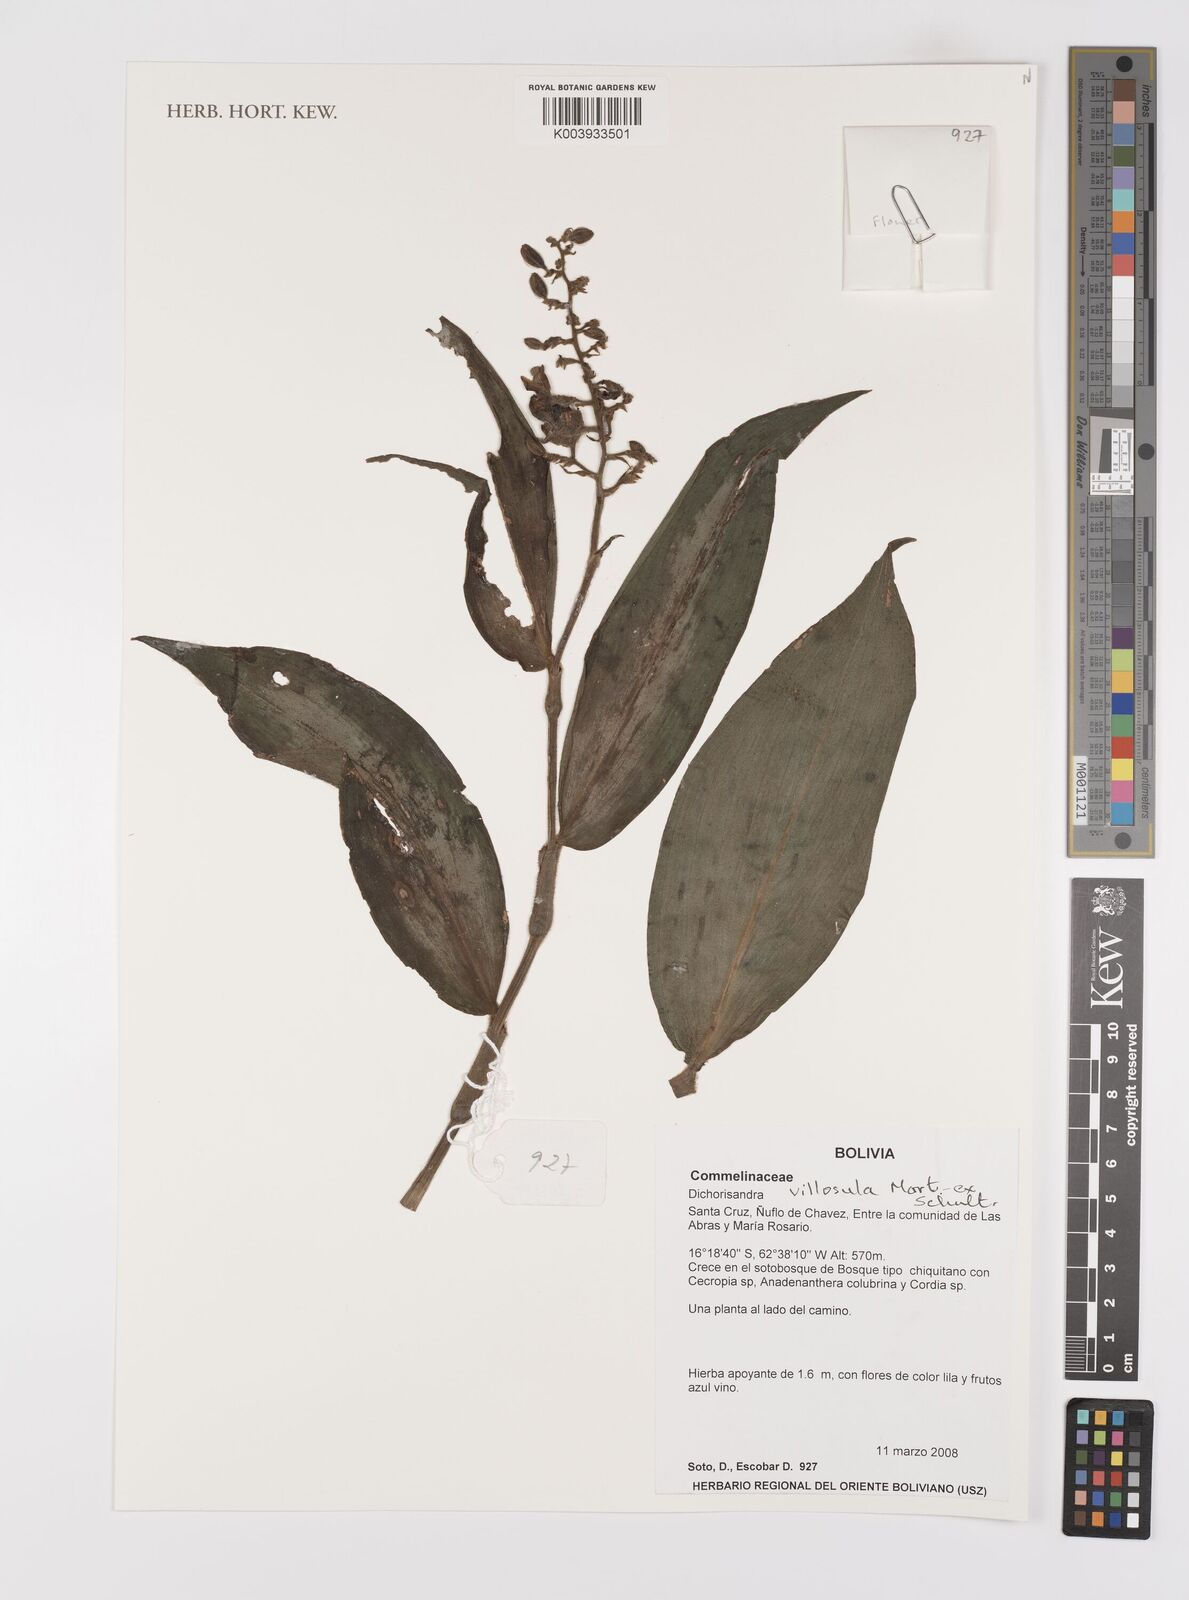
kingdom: Plantae
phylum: Tracheophyta
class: Liliopsida
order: Commelinales
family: Commelinaceae
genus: Dichorisandra
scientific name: Dichorisandra villosula
